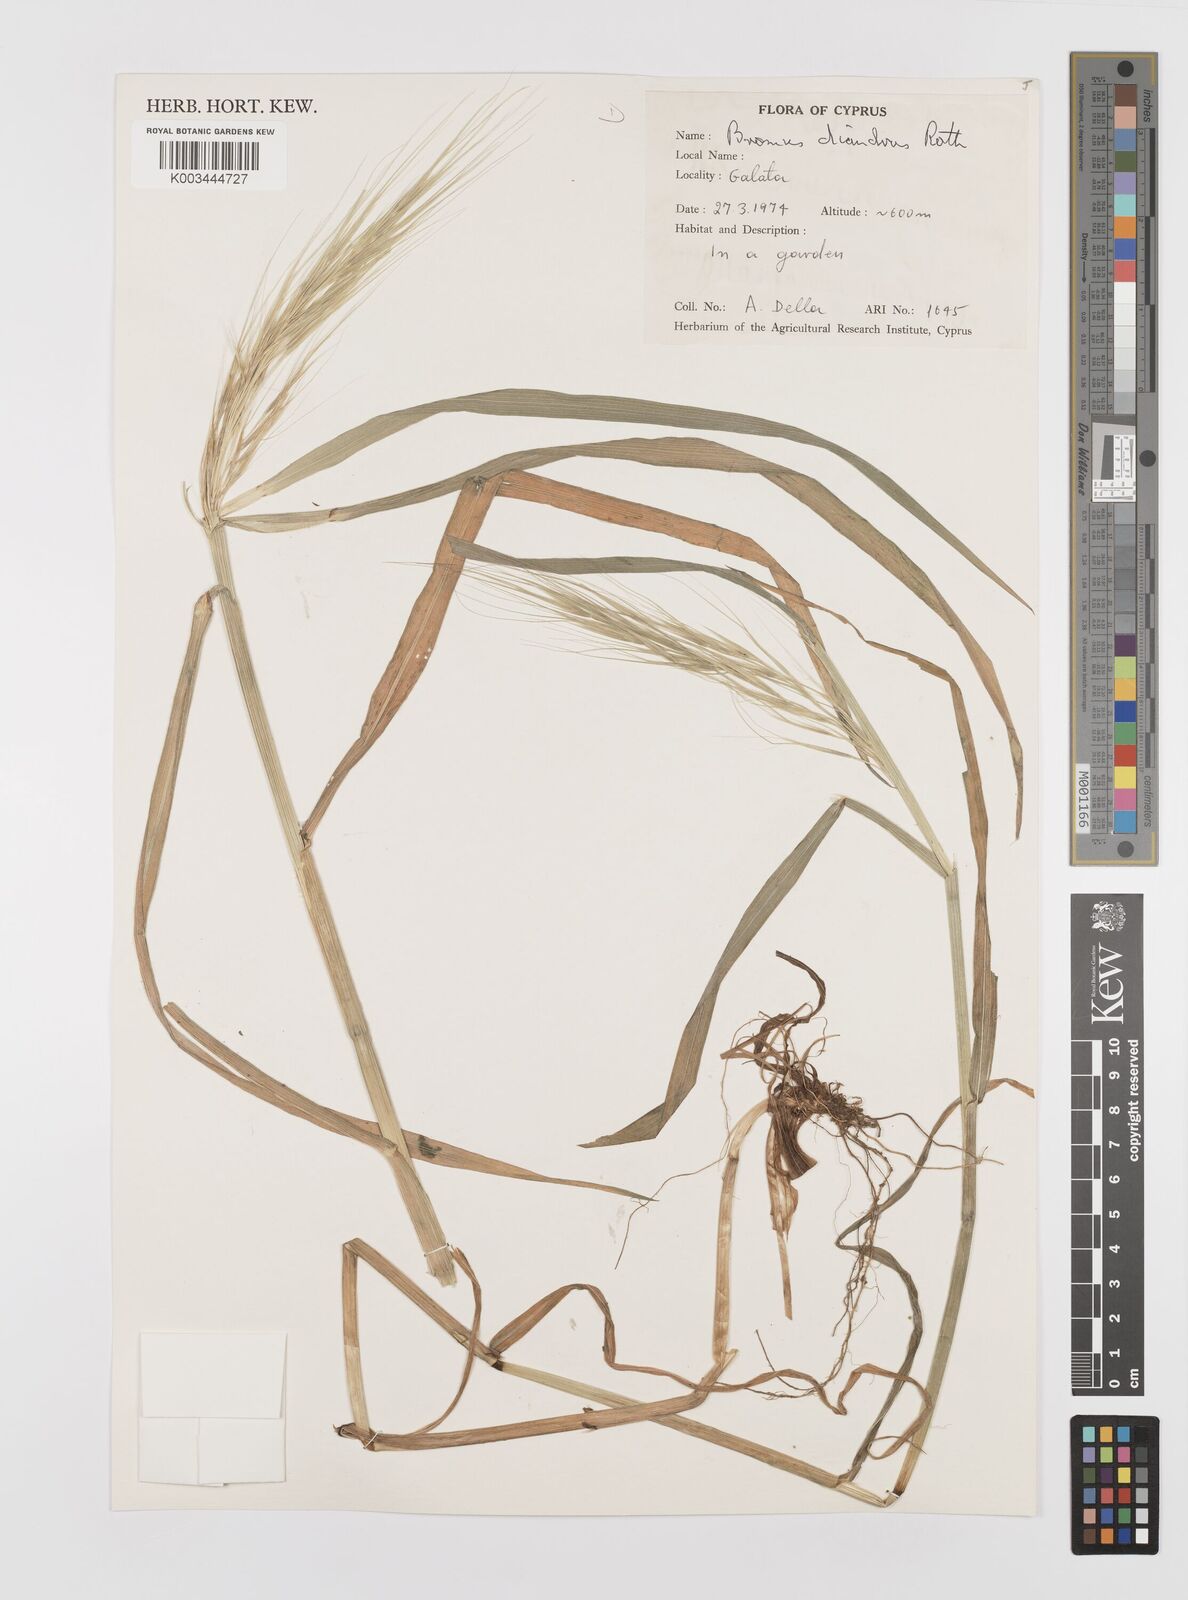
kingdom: Plantae
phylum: Tracheophyta
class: Liliopsida
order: Poales
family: Poaceae
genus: Bromus
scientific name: Bromus diandrus
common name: Ripgut brome
